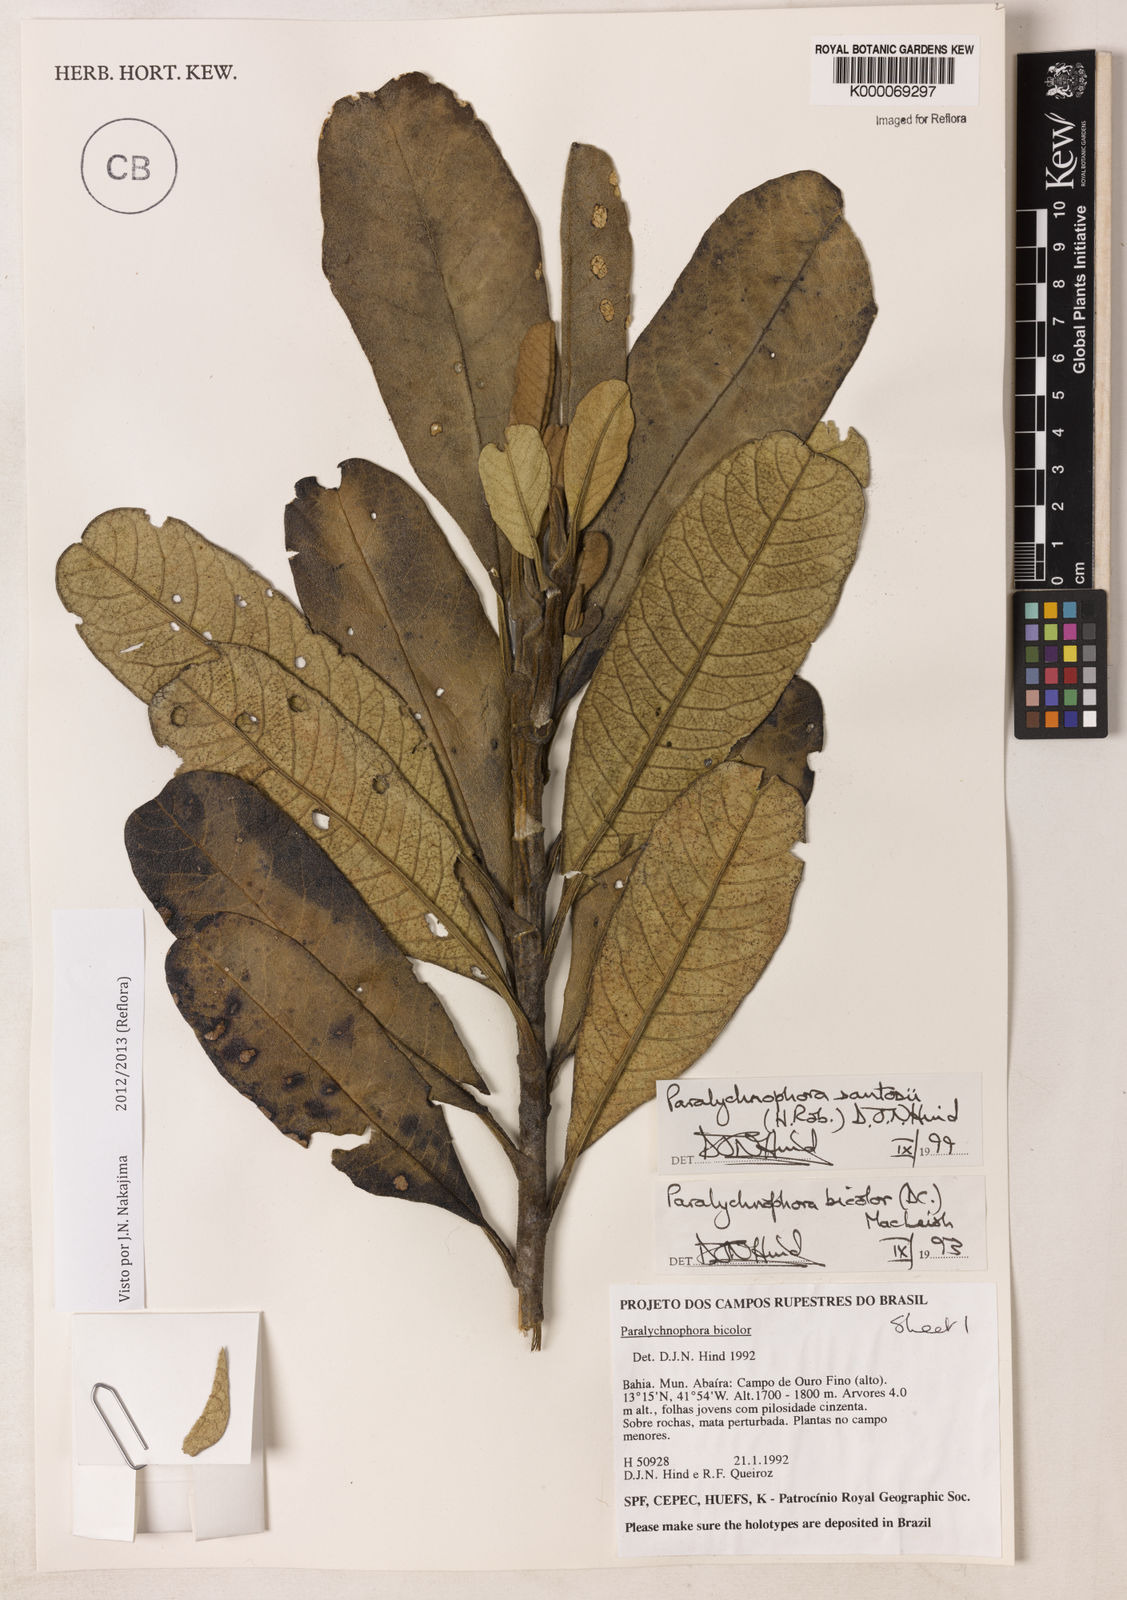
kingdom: Plantae
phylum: Tracheophyta
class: Magnoliopsida
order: Asterales
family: Asteraceae
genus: Paralychnophora
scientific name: Paralychnophora santosii
